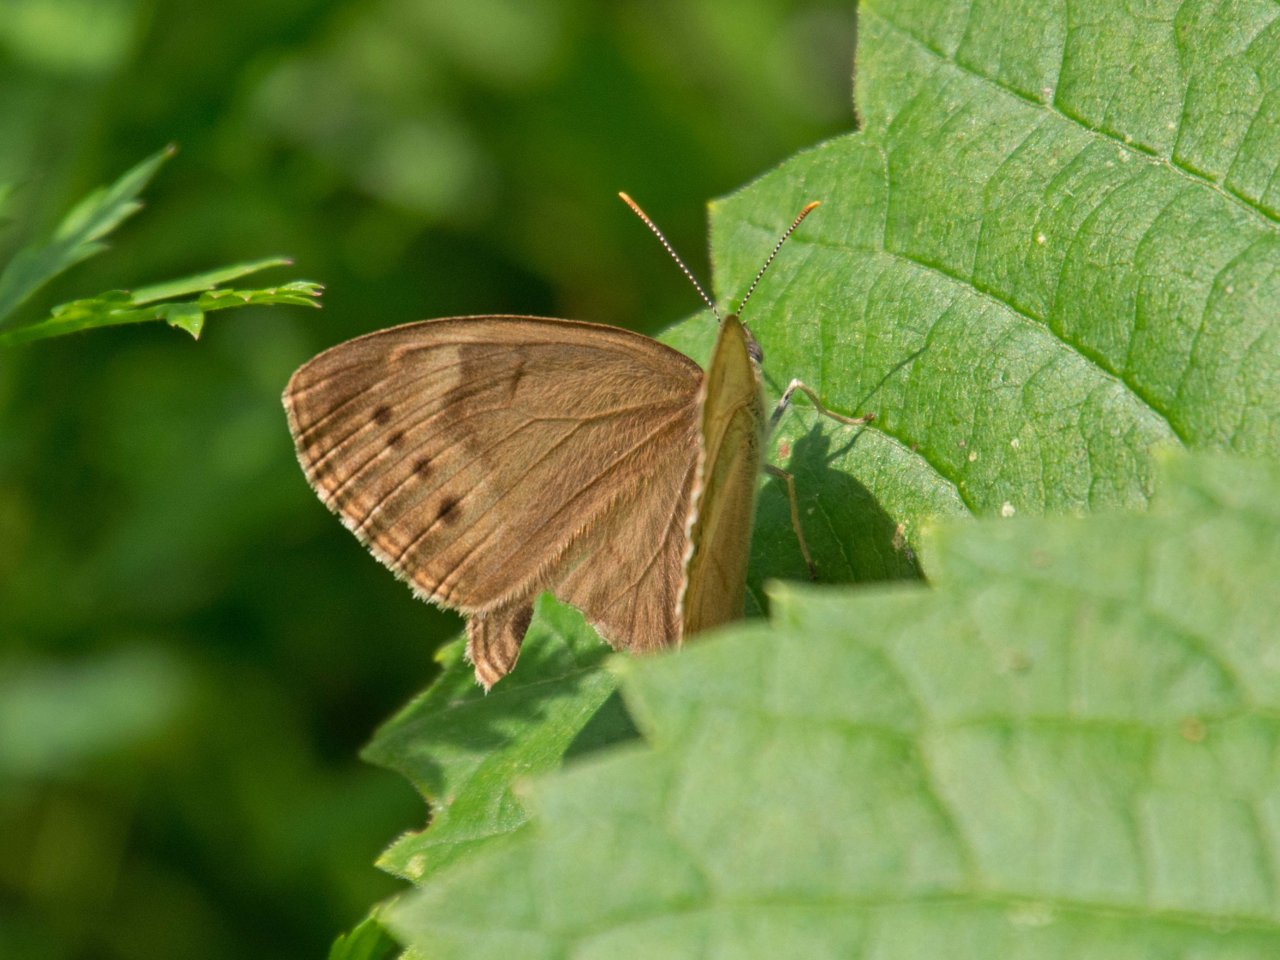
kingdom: Animalia
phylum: Arthropoda
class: Insecta
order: Lepidoptera
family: Nymphalidae
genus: Lethe
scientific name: Lethe eurydice
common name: Eyed Brown
